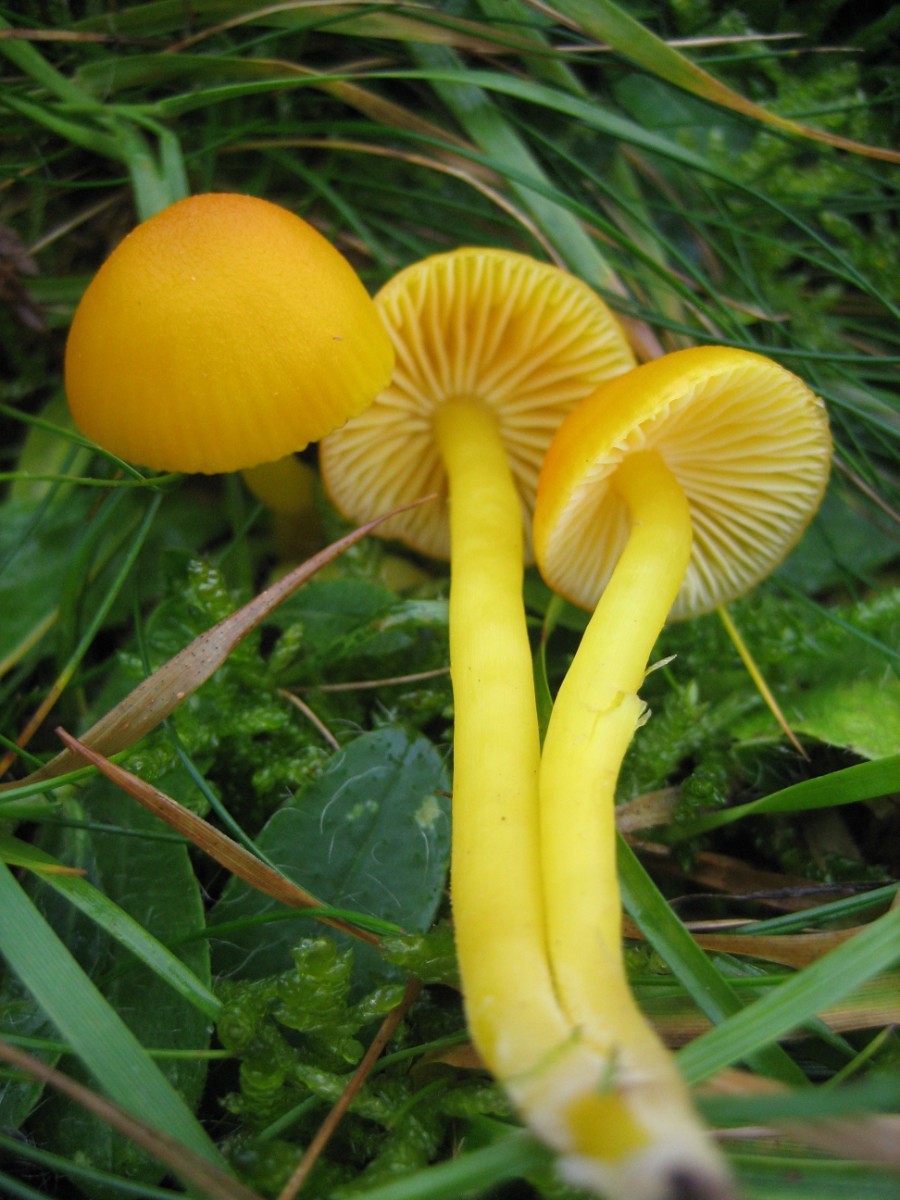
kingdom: Fungi
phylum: Basidiomycota
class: Agaricomycetes
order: Agaricales
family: Hygrophoraceae
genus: Hygrocybe
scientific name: Hygrocybe ceracea
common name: voksgul vokshat
